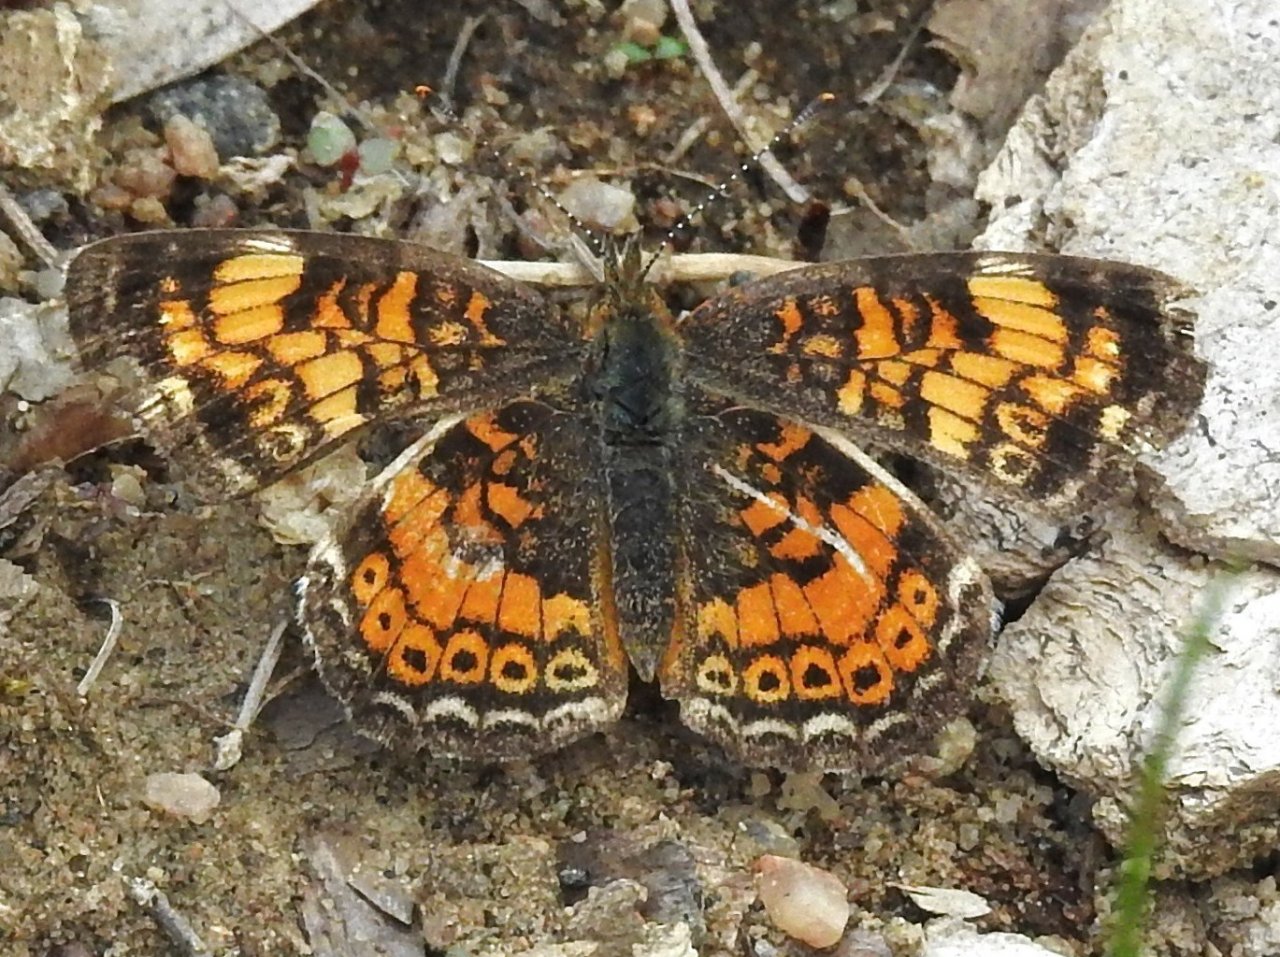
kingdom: Animalia
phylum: Arthropoda
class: Insecta
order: Lepidoptera
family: Nymphalidae
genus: Phyciodes
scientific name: Phyciodes tharos
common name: Pearl Crescent
